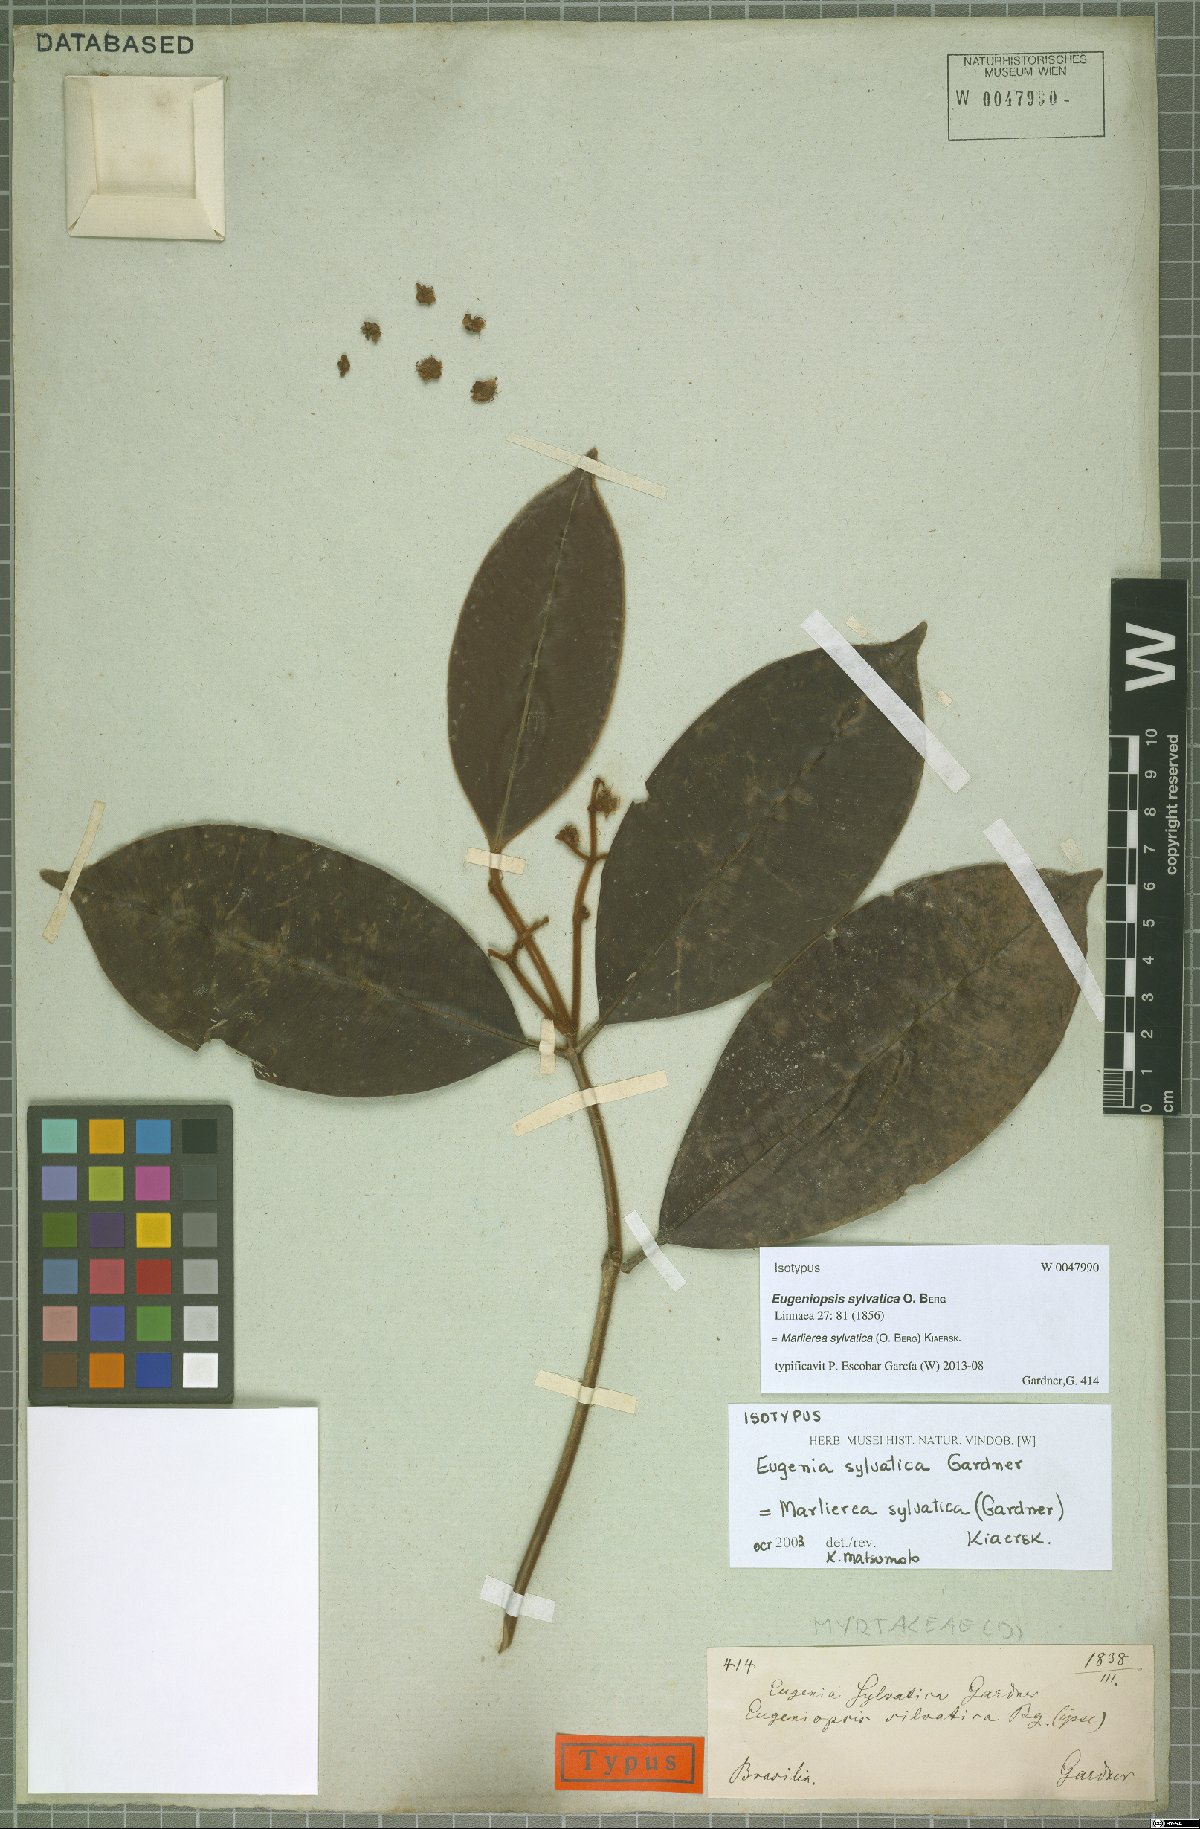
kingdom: Plantae
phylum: Tracheophyta
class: Magnoliopsida
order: Myrtales
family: Myrtaceae
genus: Myrcia
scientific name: Myrcia ferruginosa
